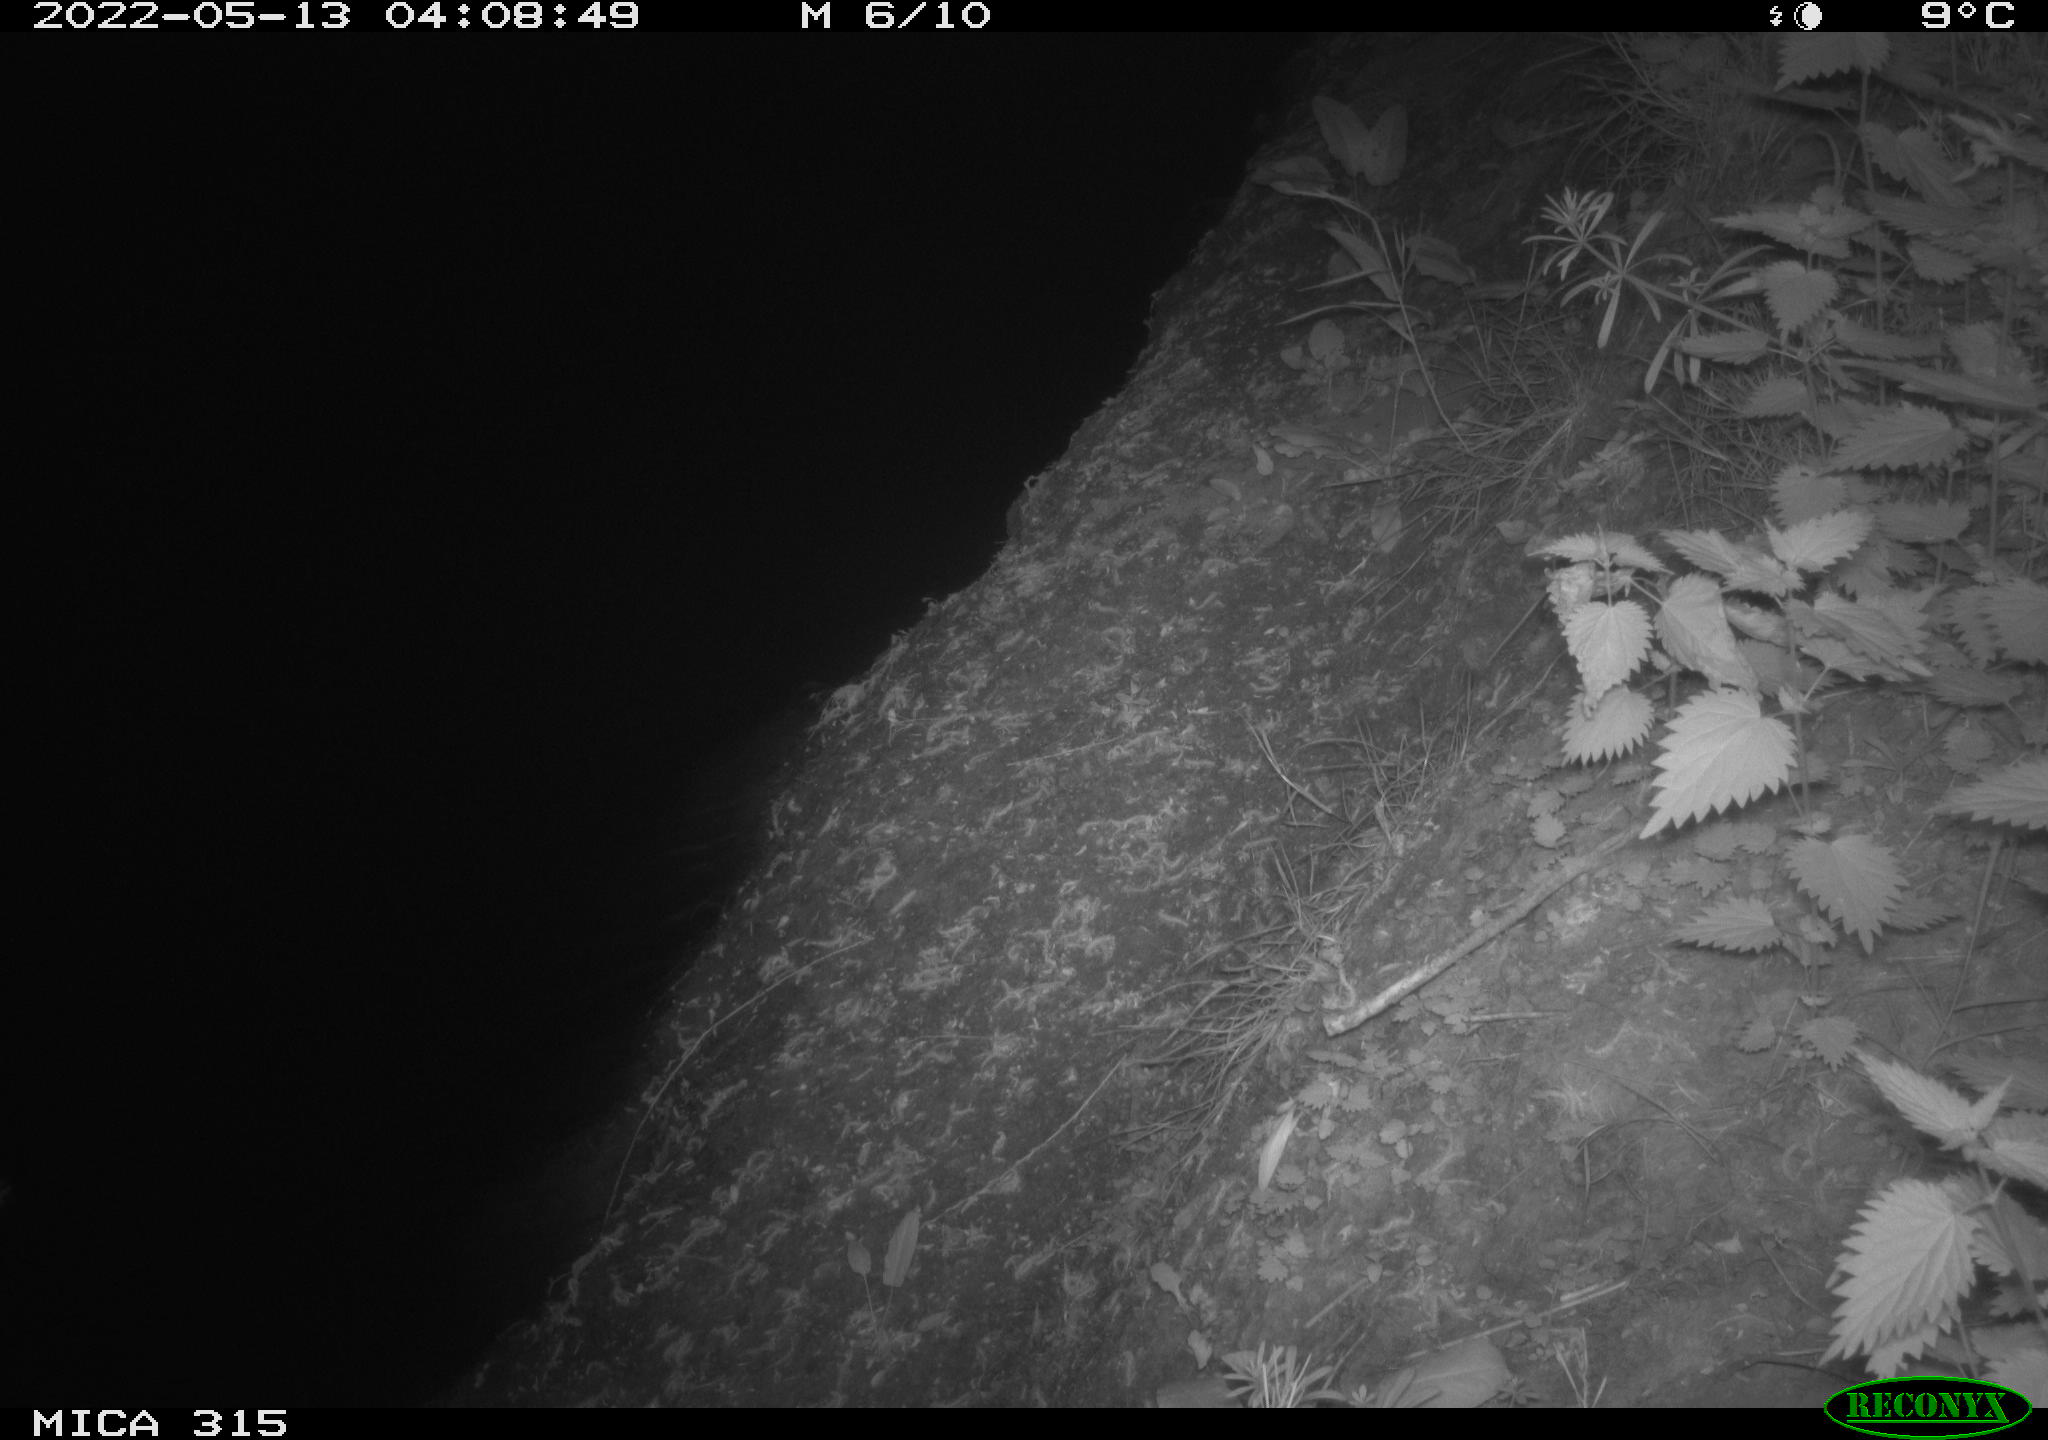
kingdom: Animalia
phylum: Chordata
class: Aves
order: Anseriformes
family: Anatidae
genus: Anas
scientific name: Anas
